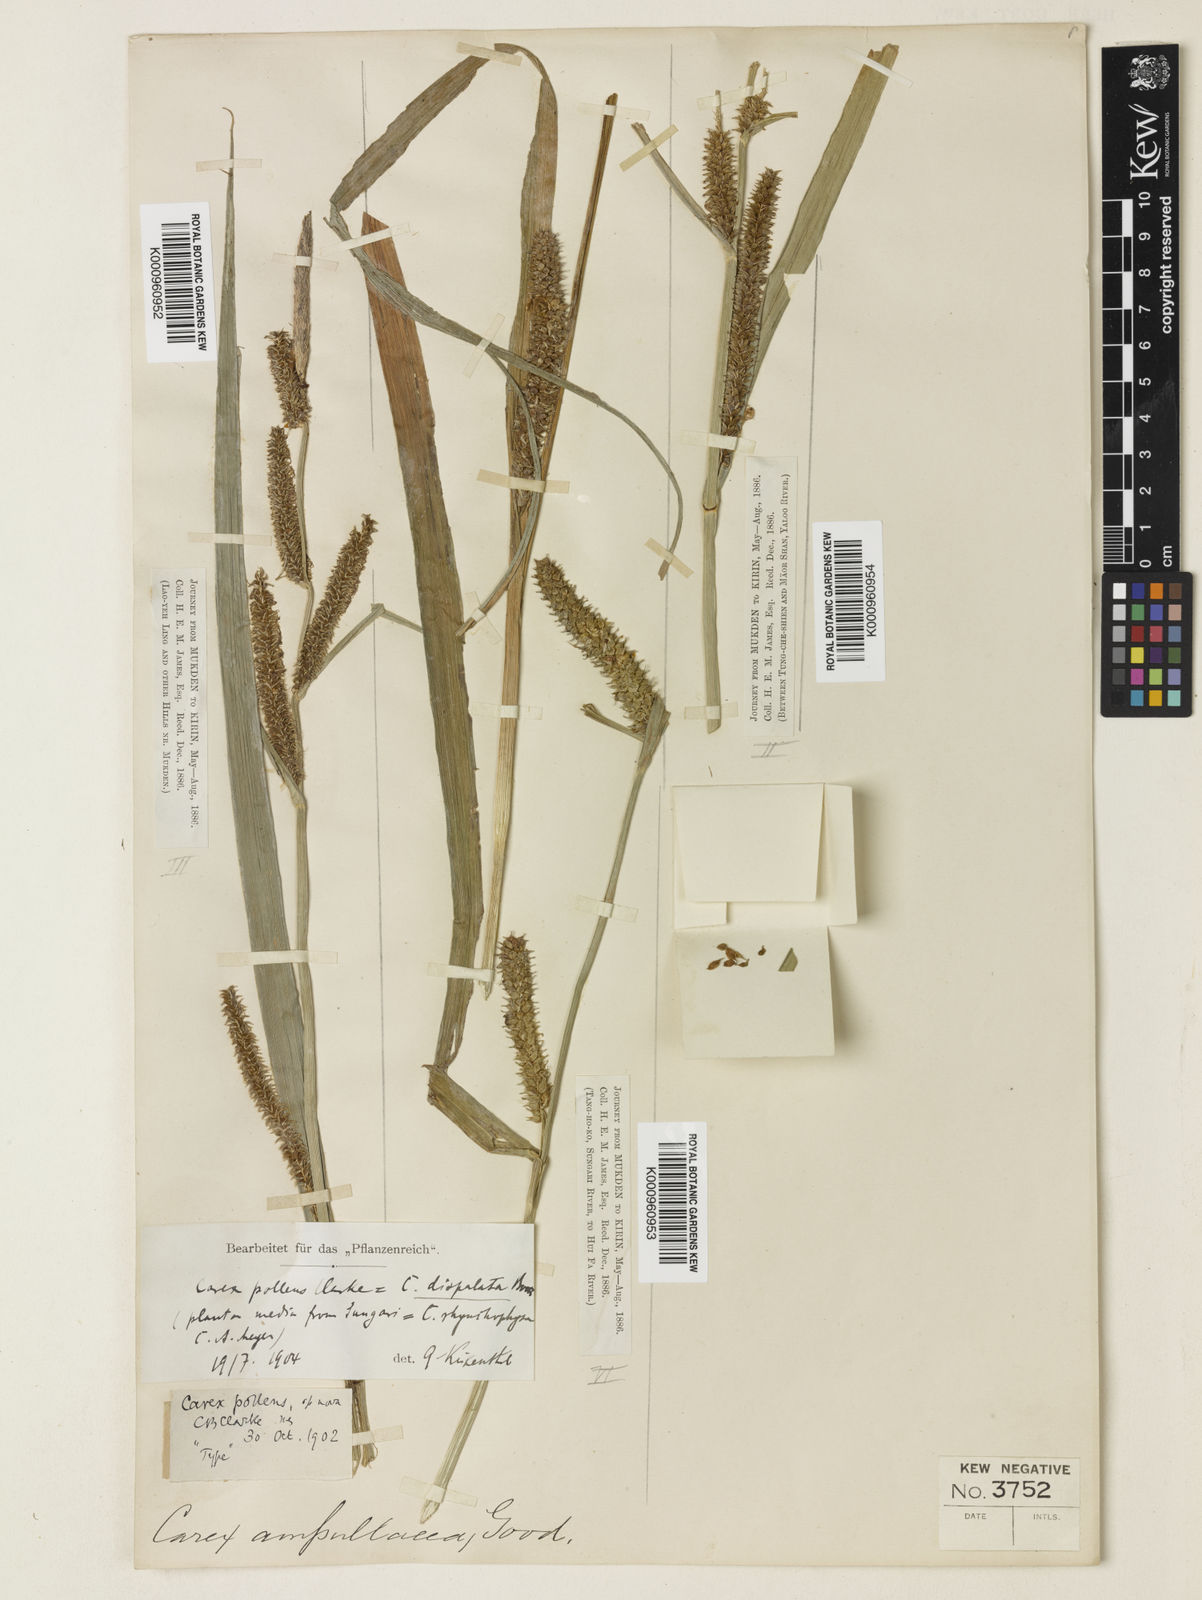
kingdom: Plantae
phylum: Tracheophyta
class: Liliopsida
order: Poales
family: Cyperaceae
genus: Carex
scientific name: Carex dispalata
